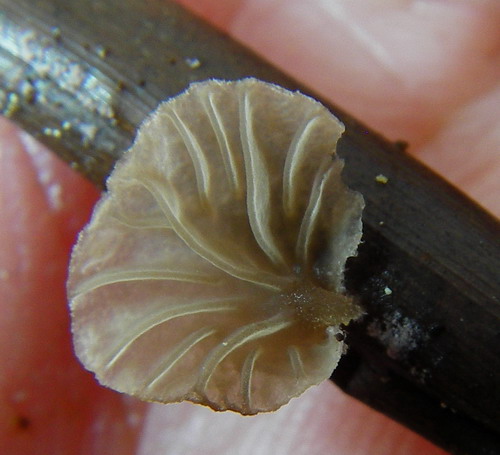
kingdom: Fungi
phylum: Basidiomycota
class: Agaricomycetes
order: Agaricales
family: Hygrophoraceae
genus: Arrhenia
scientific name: Arrhenia kuehneri
